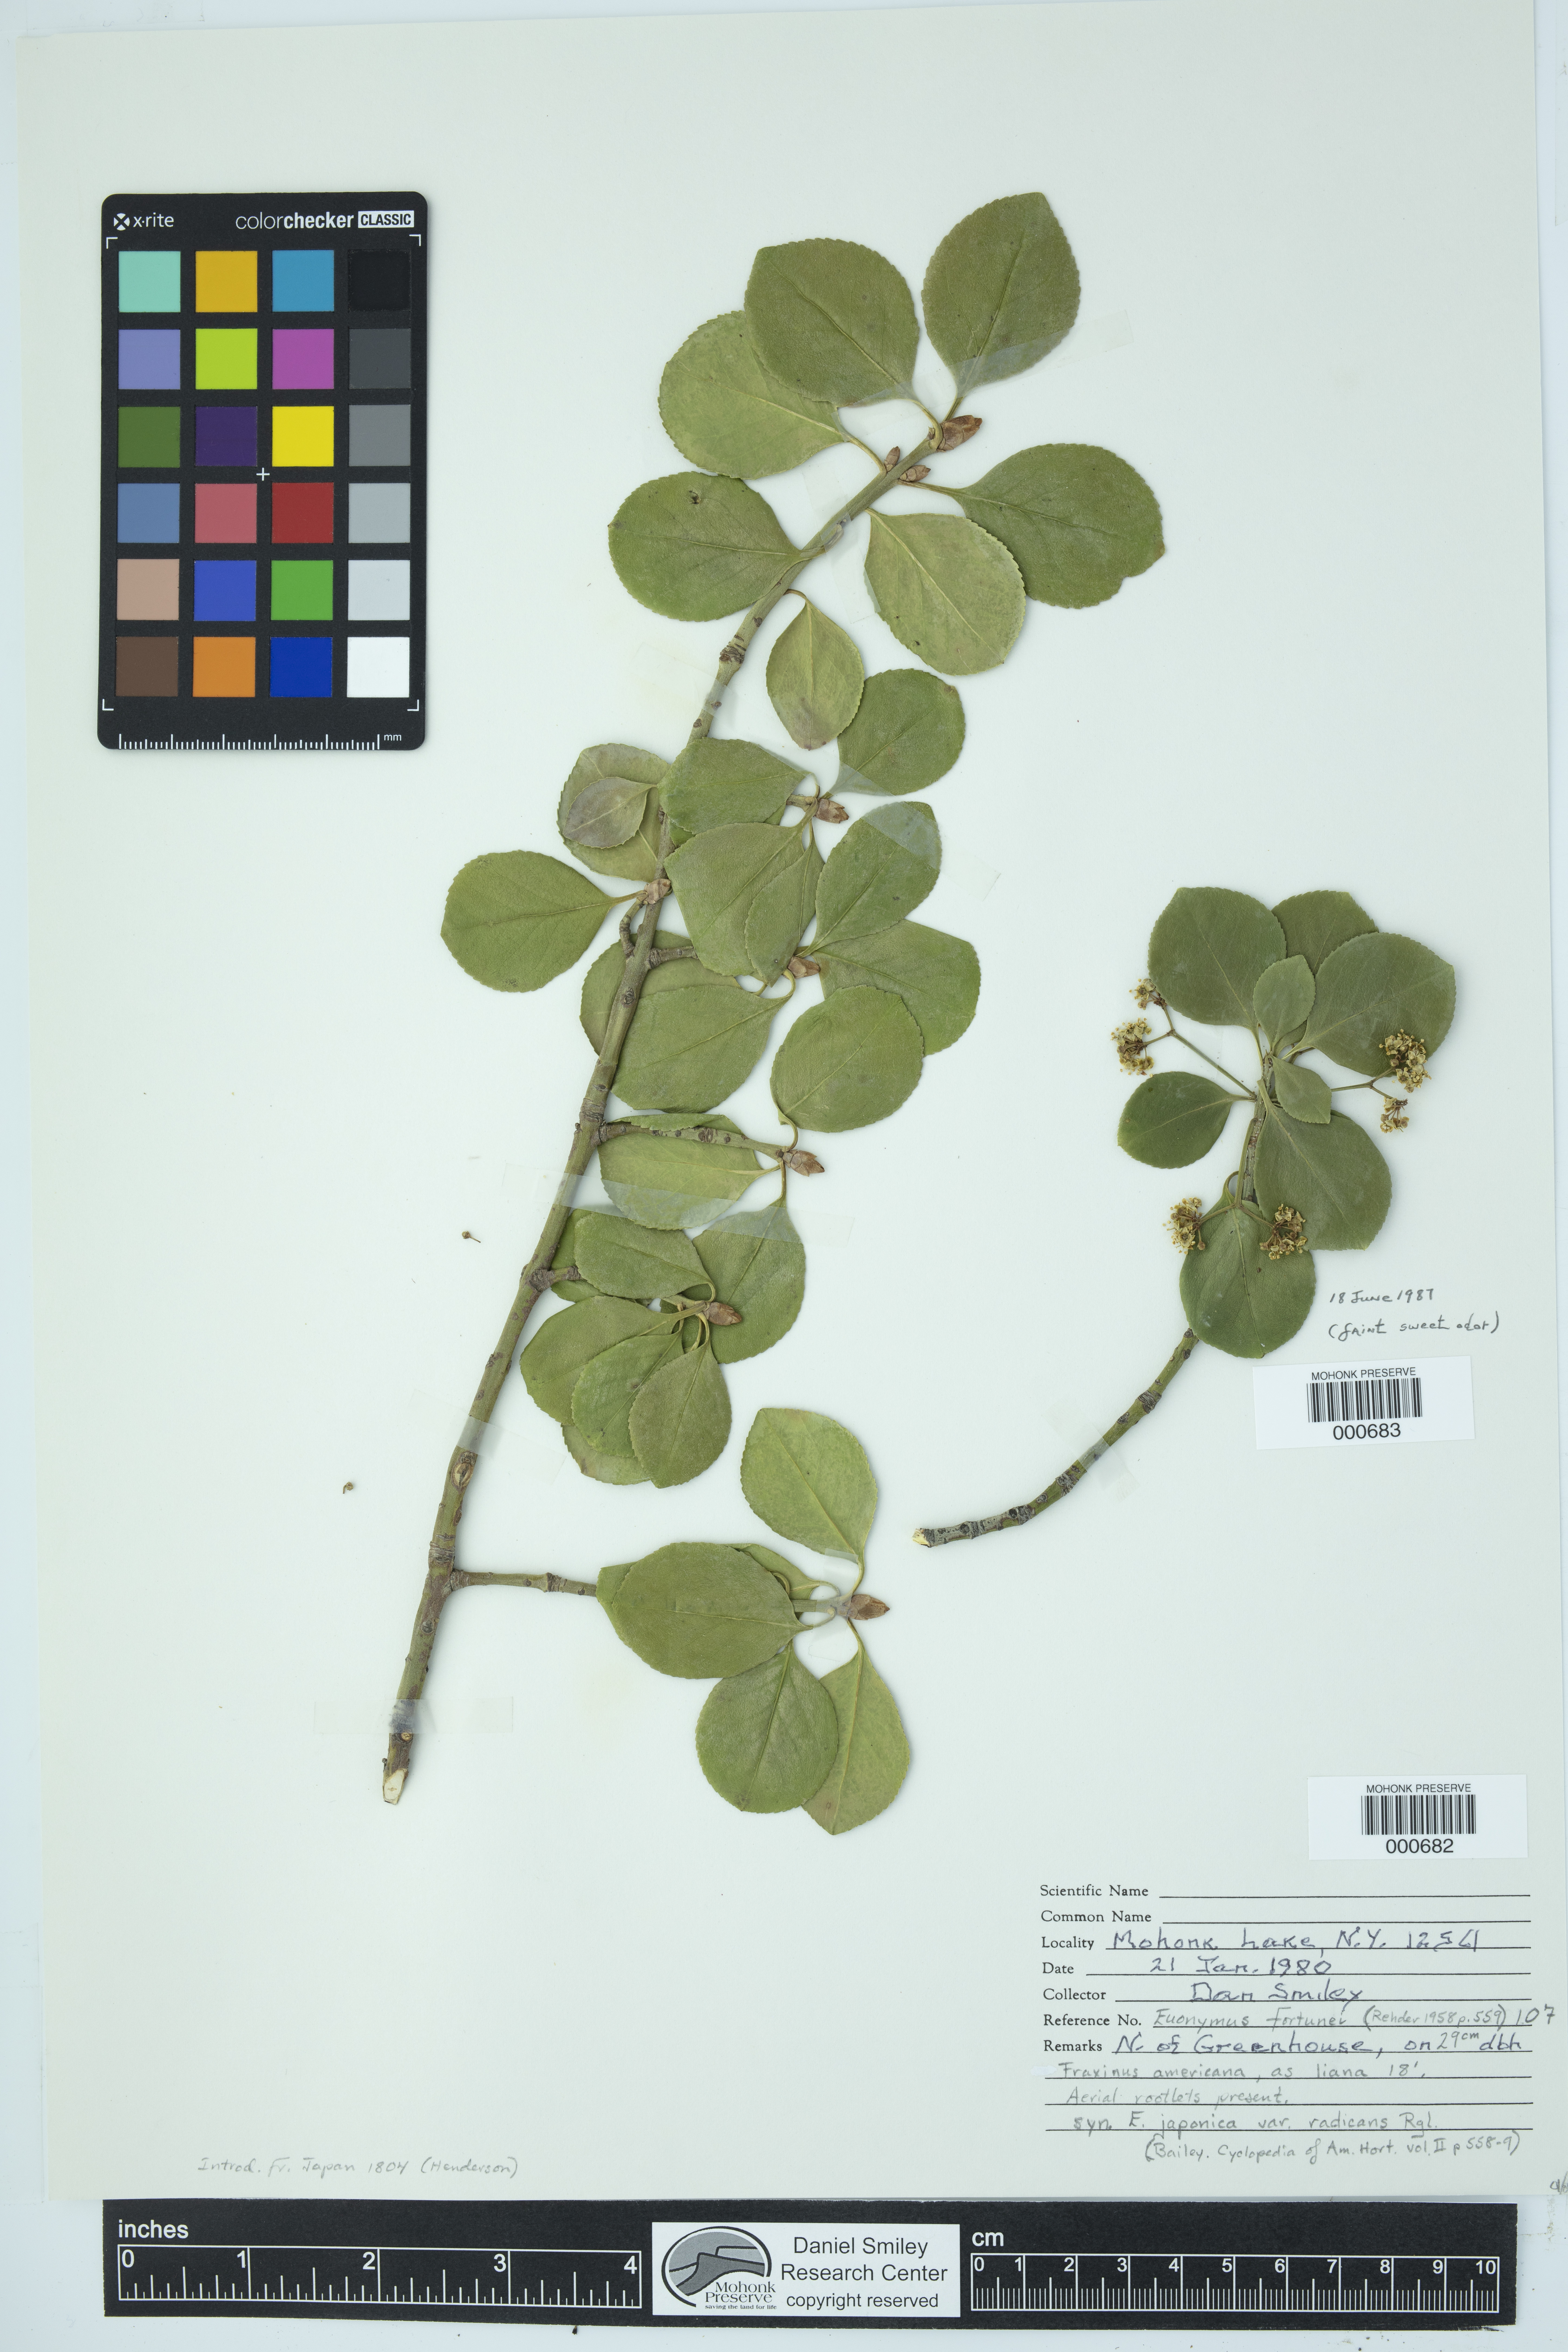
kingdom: Plantae
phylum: Tracheophyta
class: Magnoliopsida
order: Celastrales
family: Celastraceae
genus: Euonymus
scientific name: Euonymus fortunei
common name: Climbing euonymus
